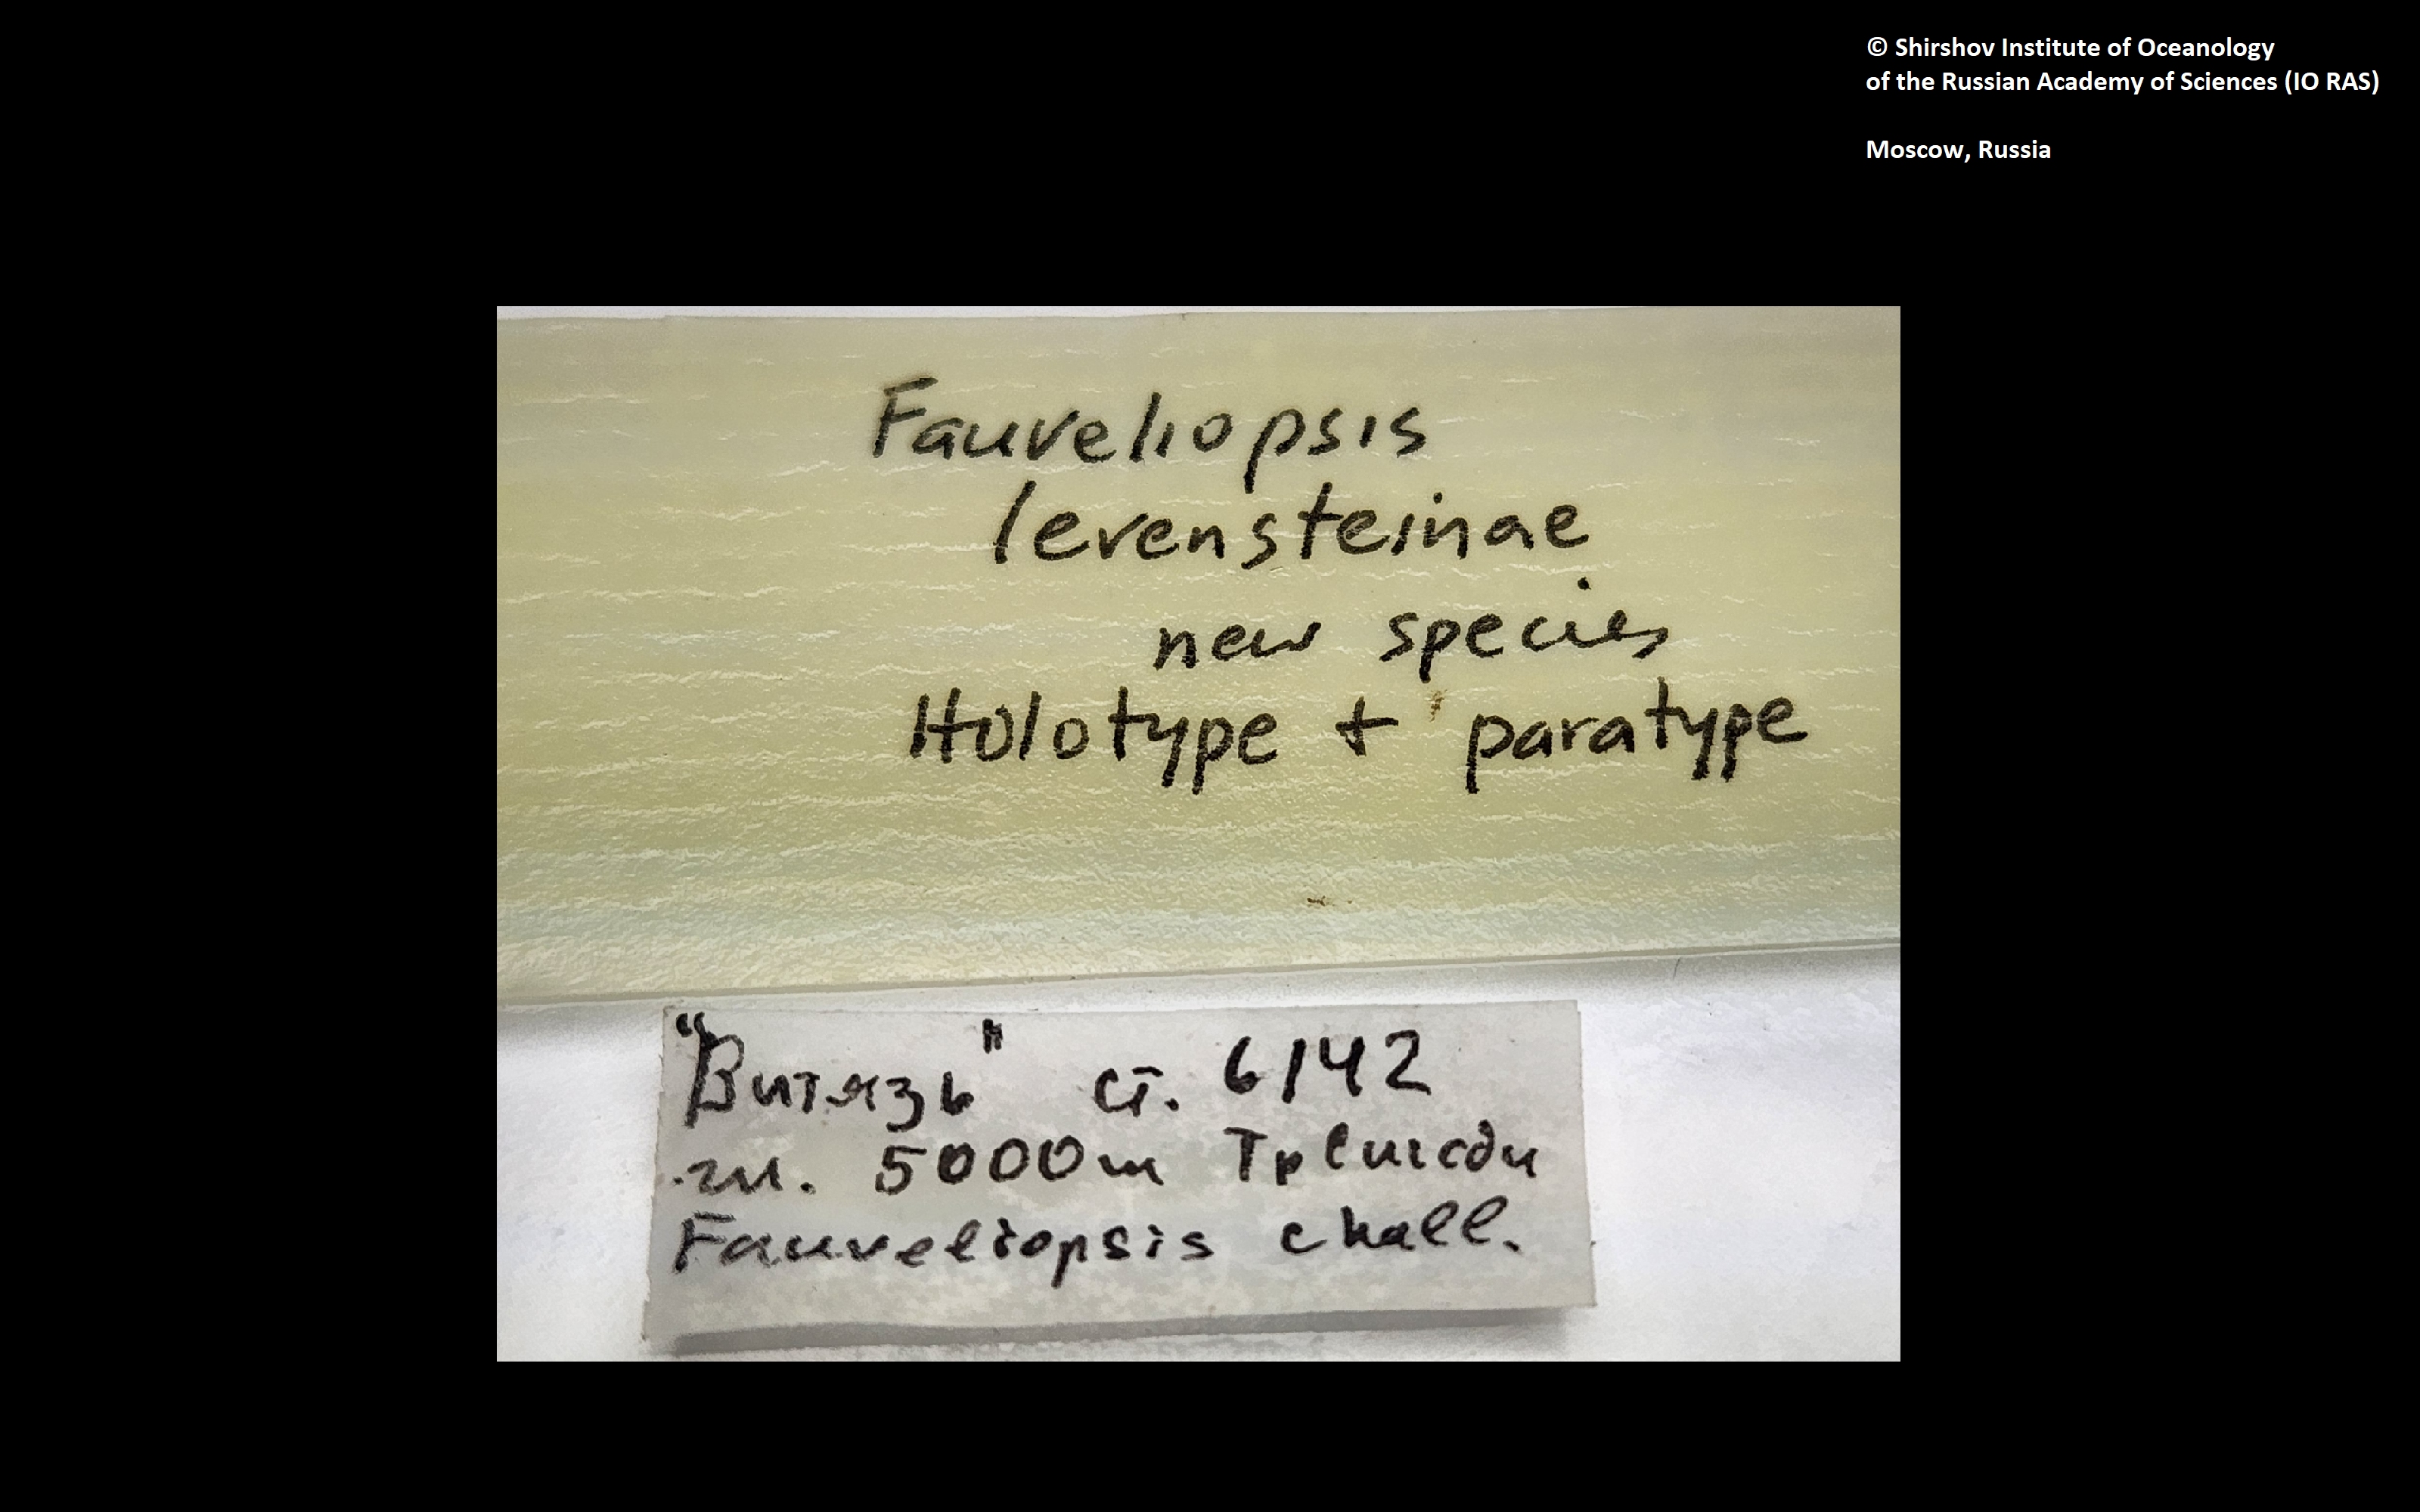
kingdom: Animalia
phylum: Annelida
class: Polychaeta
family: Fauveliopsidae
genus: Fauveliopsis
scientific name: Fauveliopsis levensteinae
